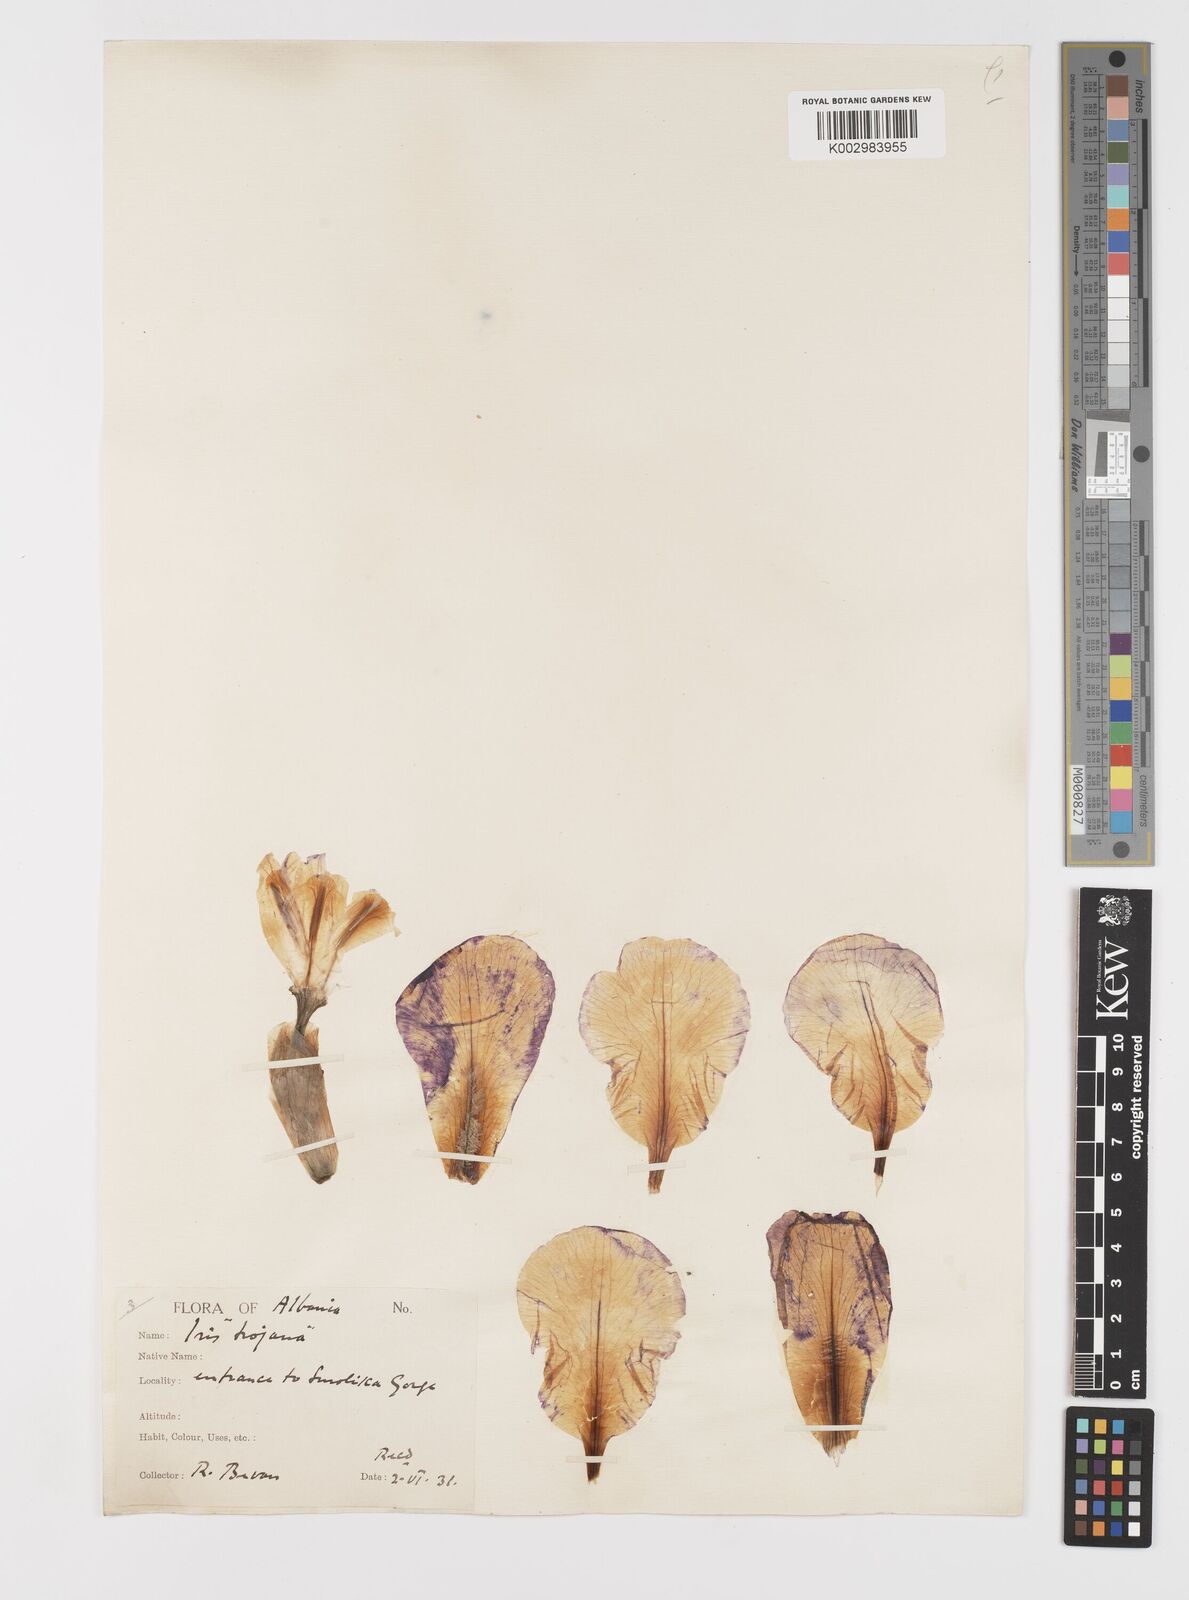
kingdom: Plantae
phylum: Tracheophyta
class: Liliopsida
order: Asparagales
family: Iridaceae
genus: Iris
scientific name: Iris germanica
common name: German iris
